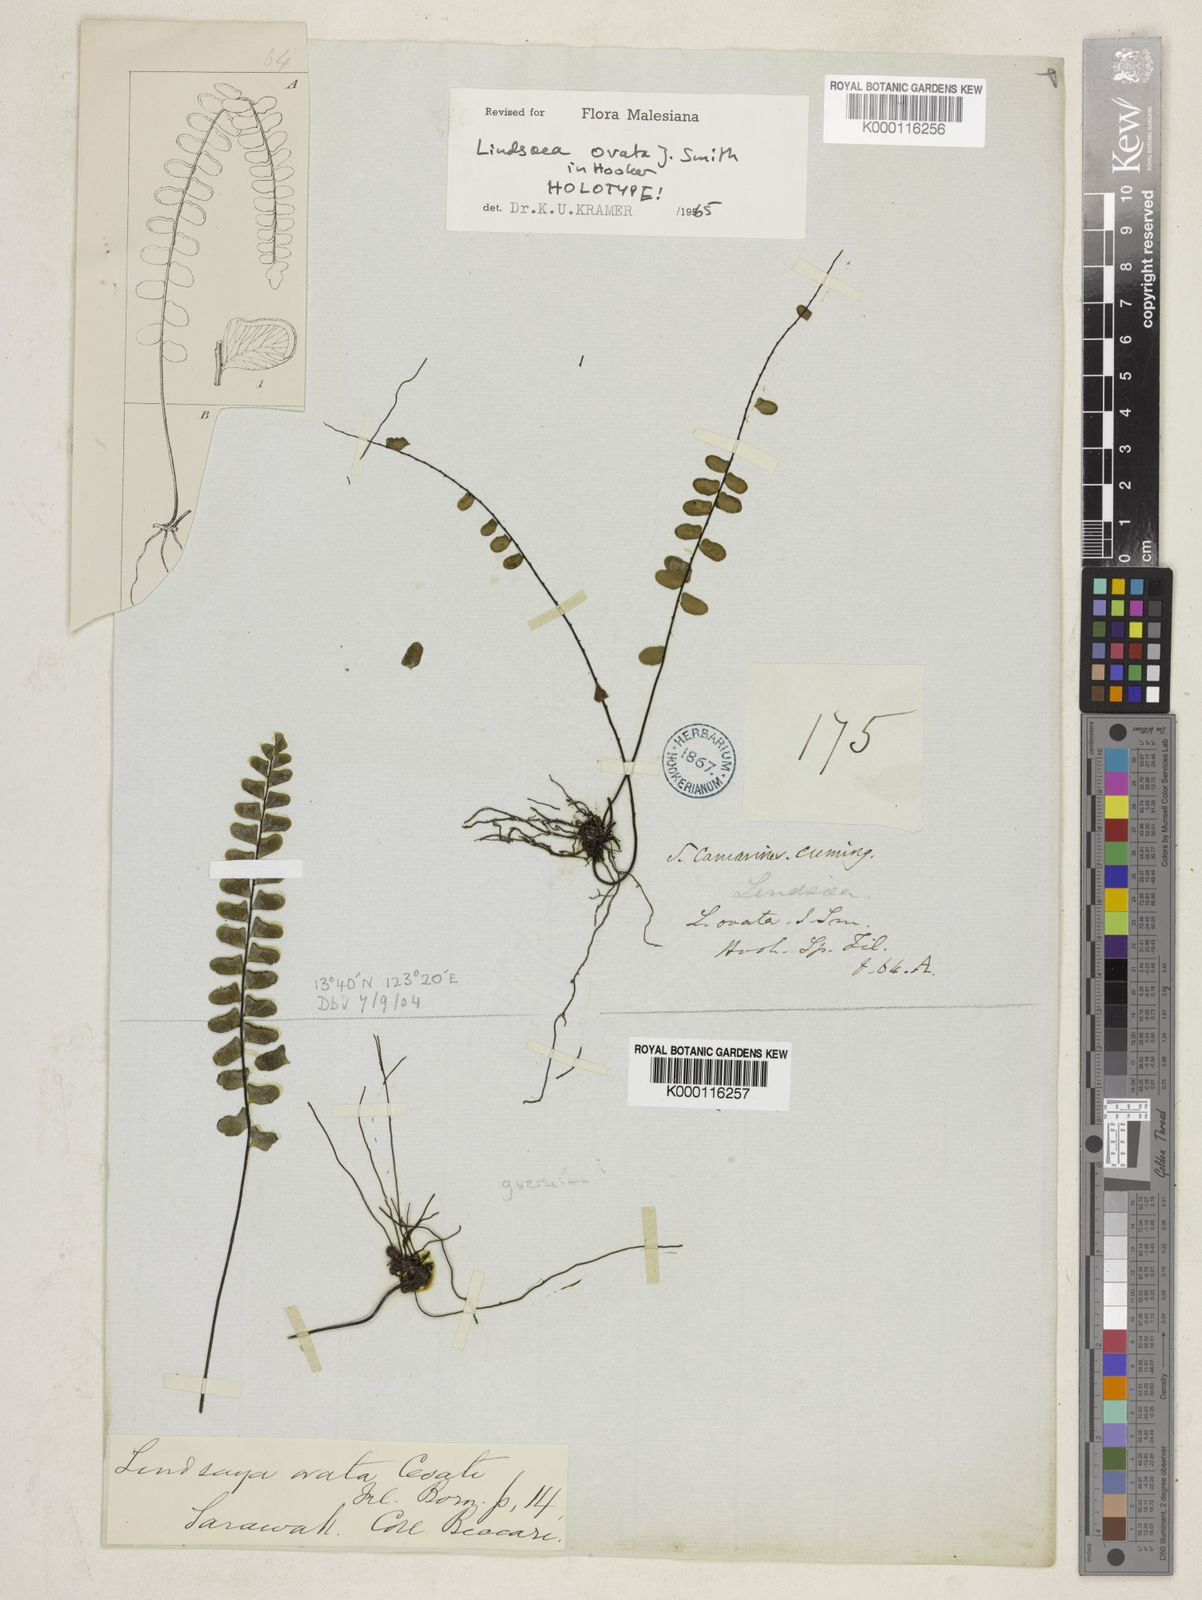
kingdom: Plantae
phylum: Tracheophyta
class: Polypodiopsida
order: Polypodiales
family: Lindsaeaceae
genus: Lindsaea
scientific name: Lindsaea
